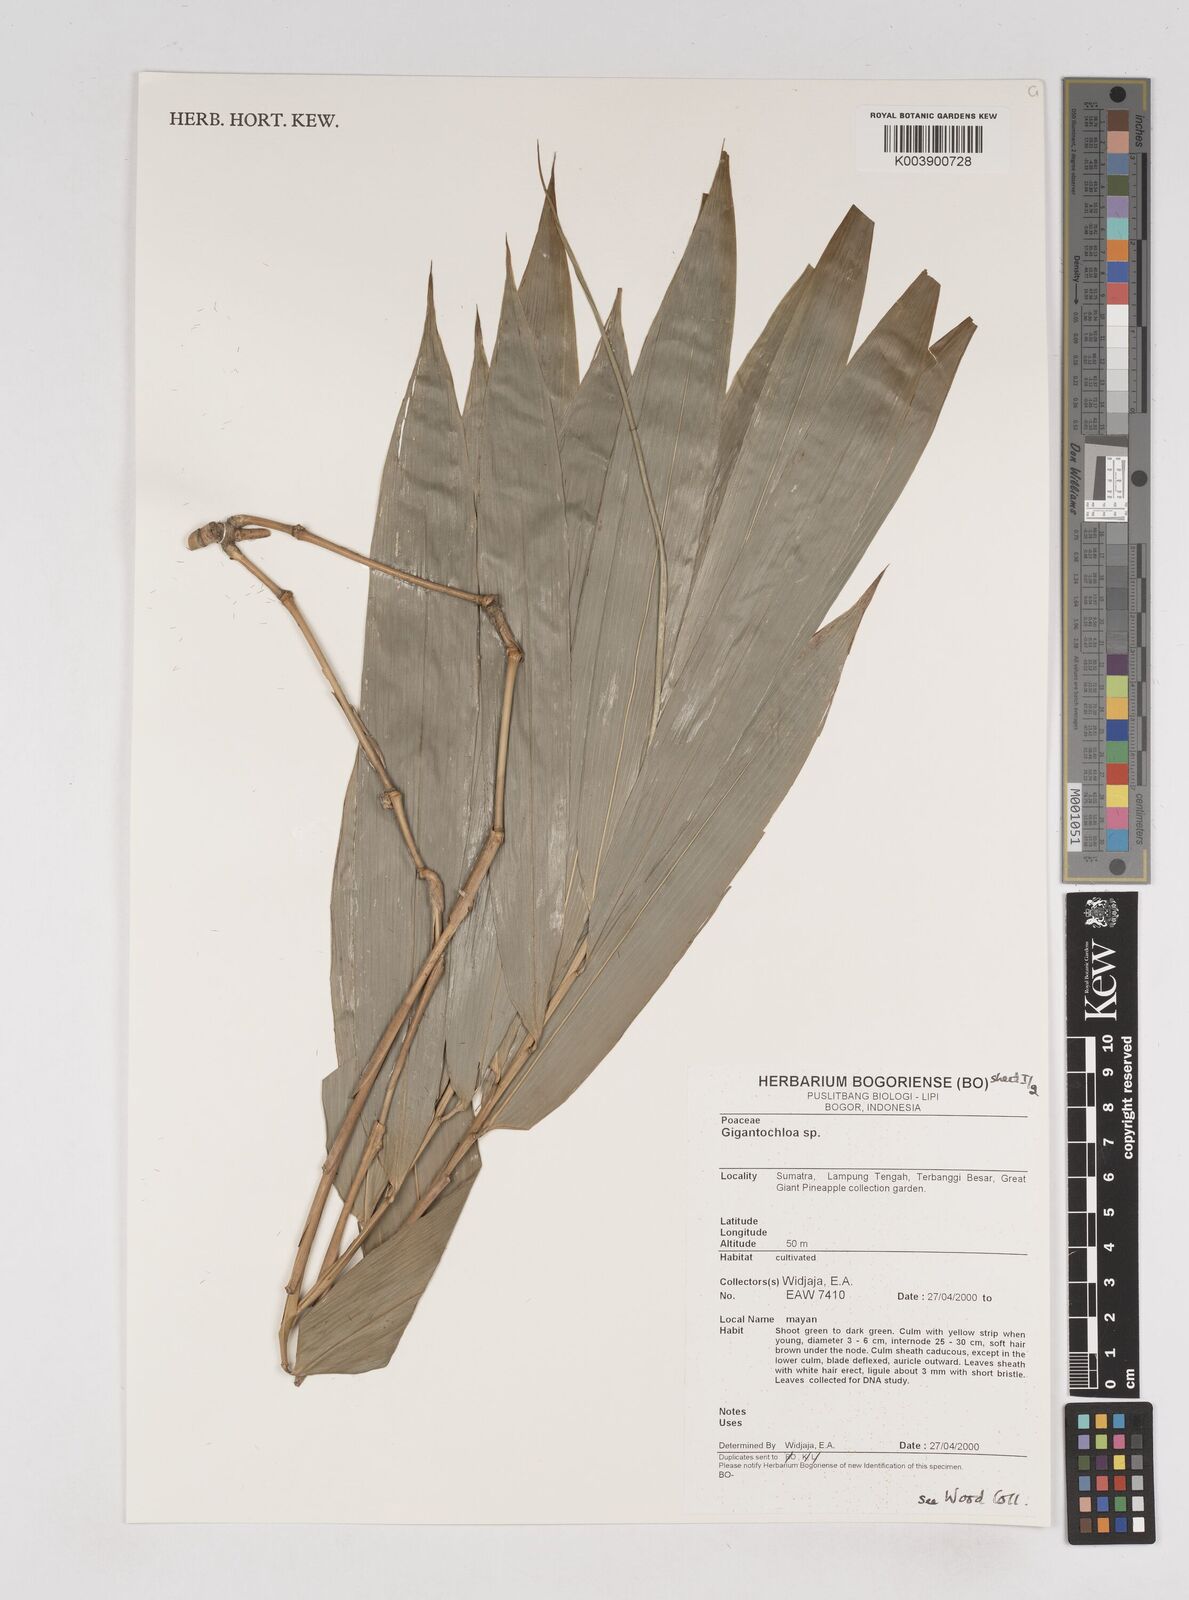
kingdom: Plantae
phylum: Tracheophyta
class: Liliopsida
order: Poales
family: Poaceae
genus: Gigantochloa
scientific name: Gigantochloa
